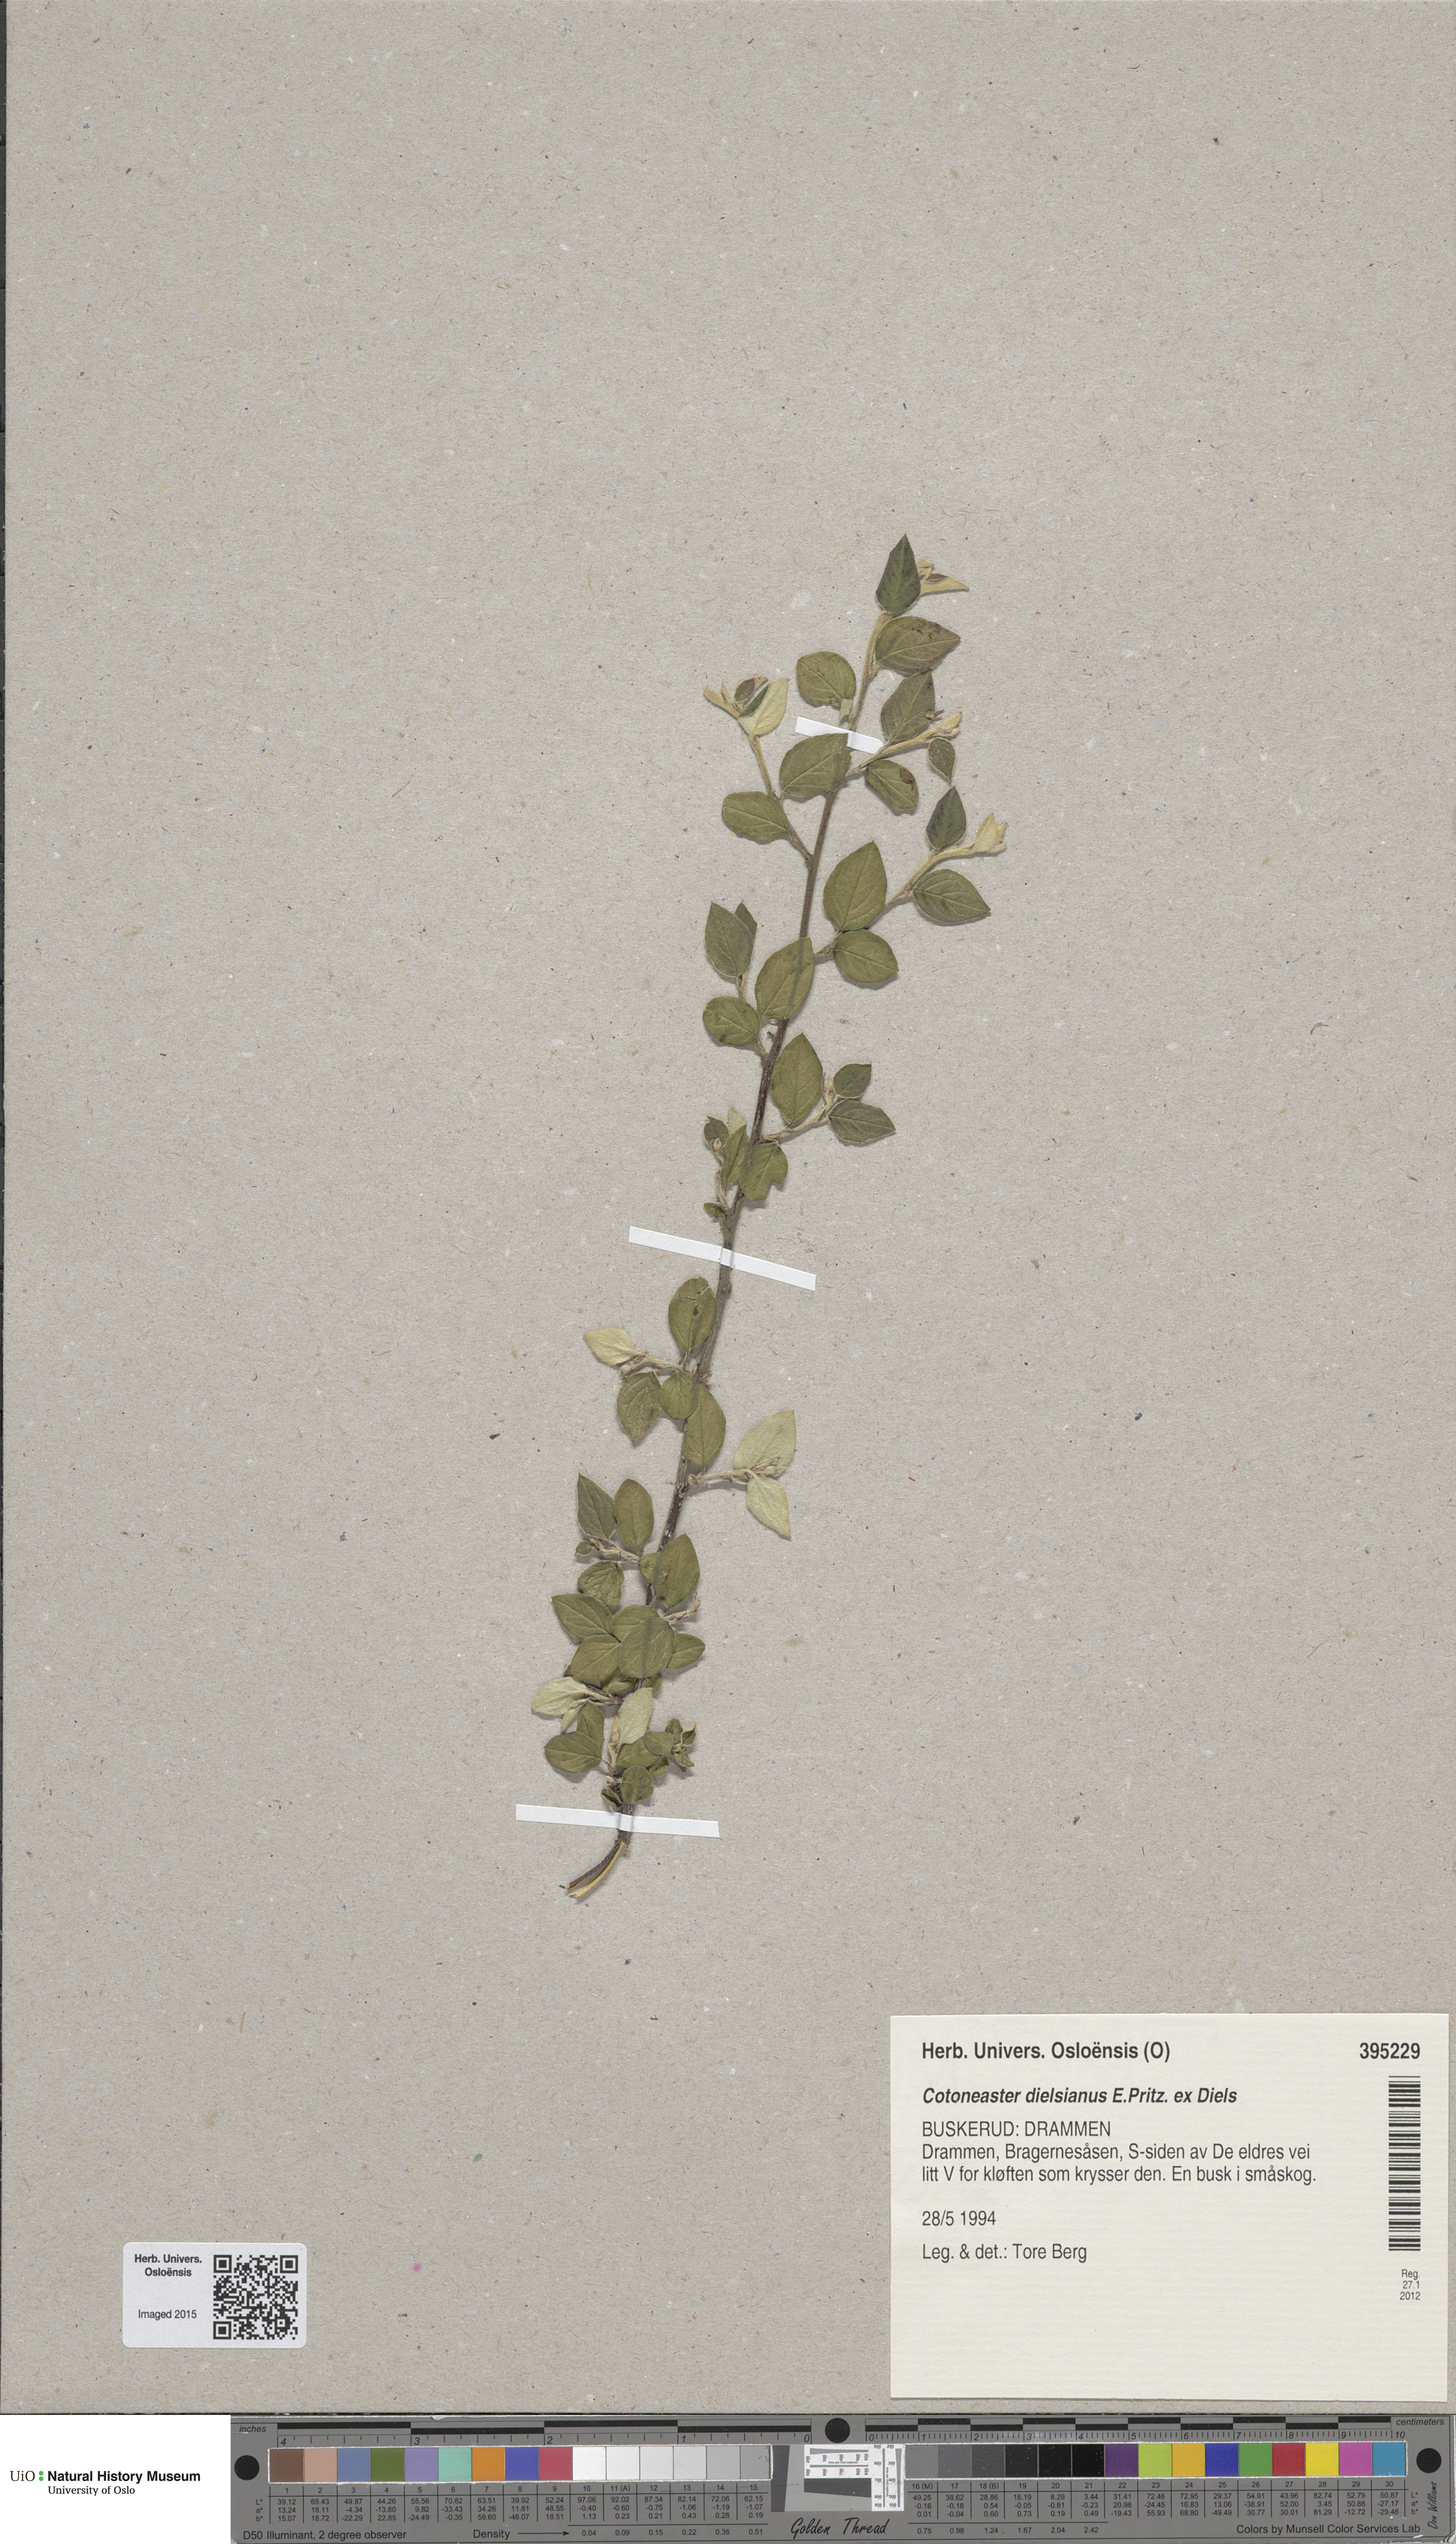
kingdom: Plantae
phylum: Tracheophyta
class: Magnoliopsida
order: Rosales
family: Rosaceae
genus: Cotoneaster
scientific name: Cotoneaster dielsianus
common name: Diels's cotoneaster
